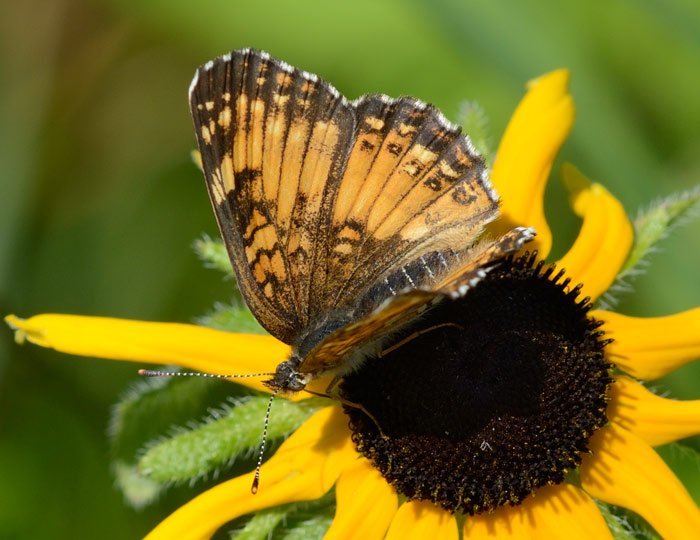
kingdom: Animalia
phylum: Arthropoda
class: Insecta
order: Lepidoptera
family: Nymphalidae
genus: Chlosyne
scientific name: Chlosyne harrisii
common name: Harris's Checkerspot
